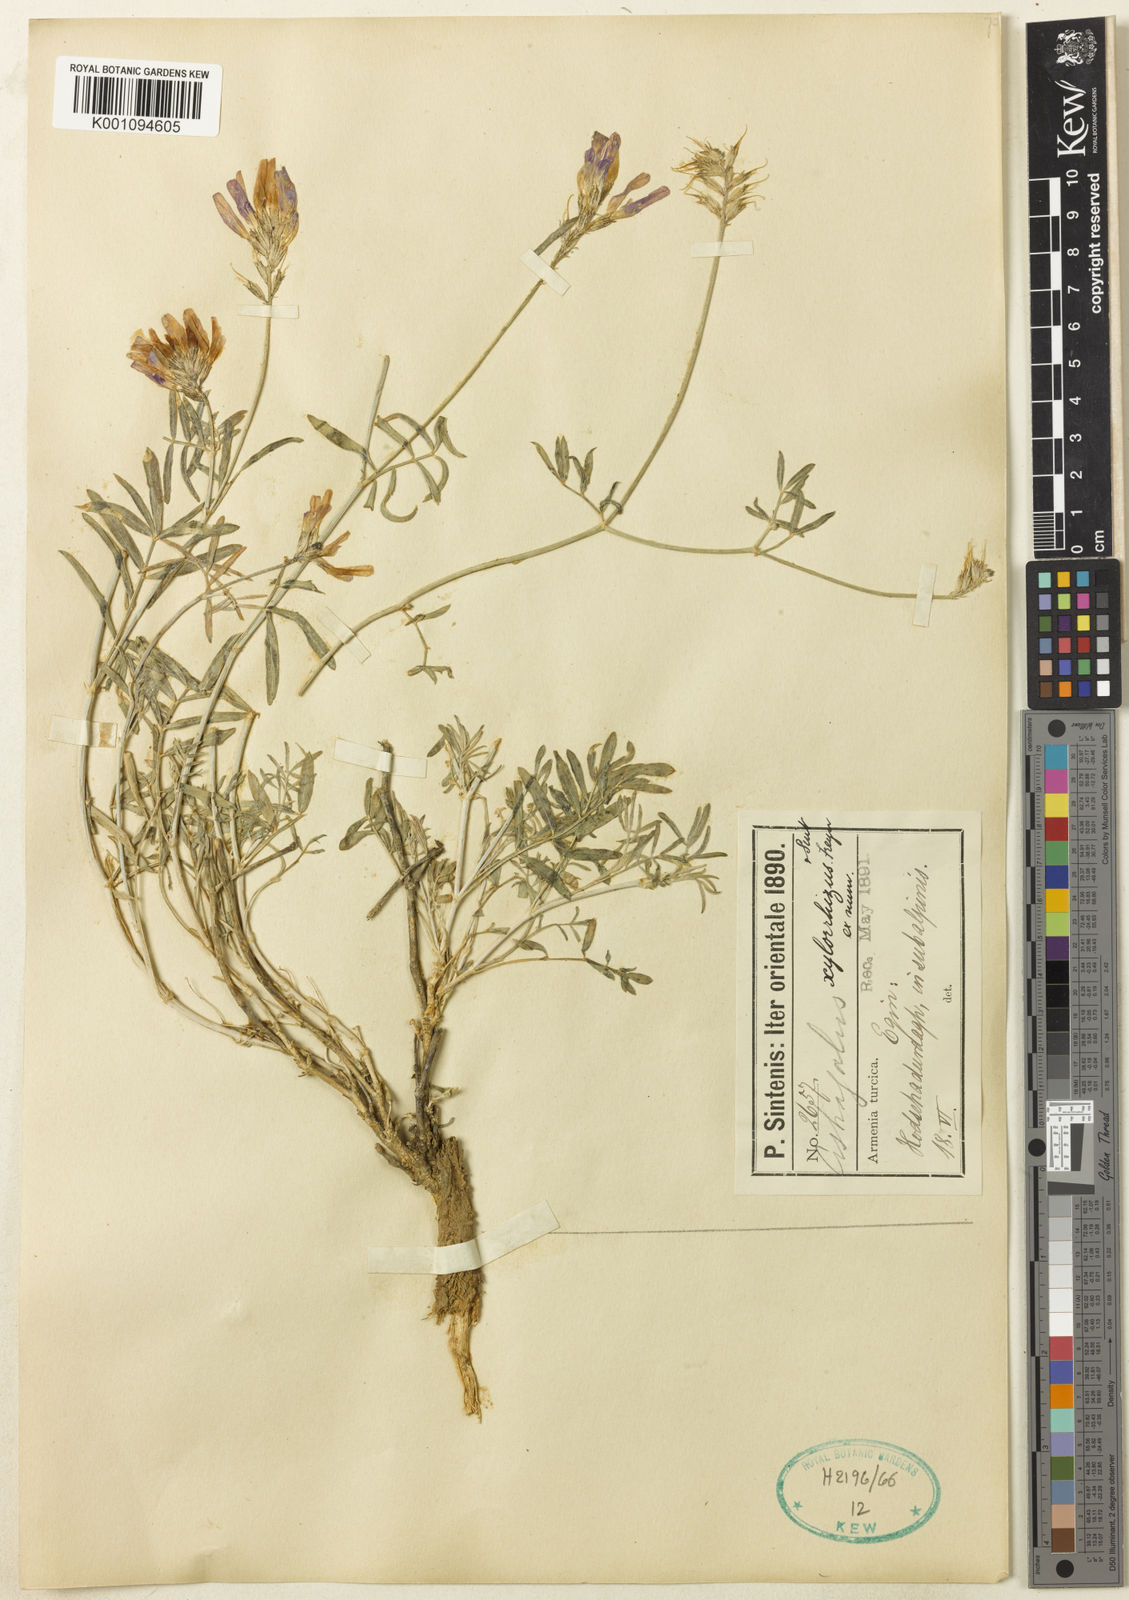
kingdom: Plantae
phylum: Tracheophyta
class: Magnoliopsida
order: Fabales
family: Fabaceae
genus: Astragalus
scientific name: Astragalus
